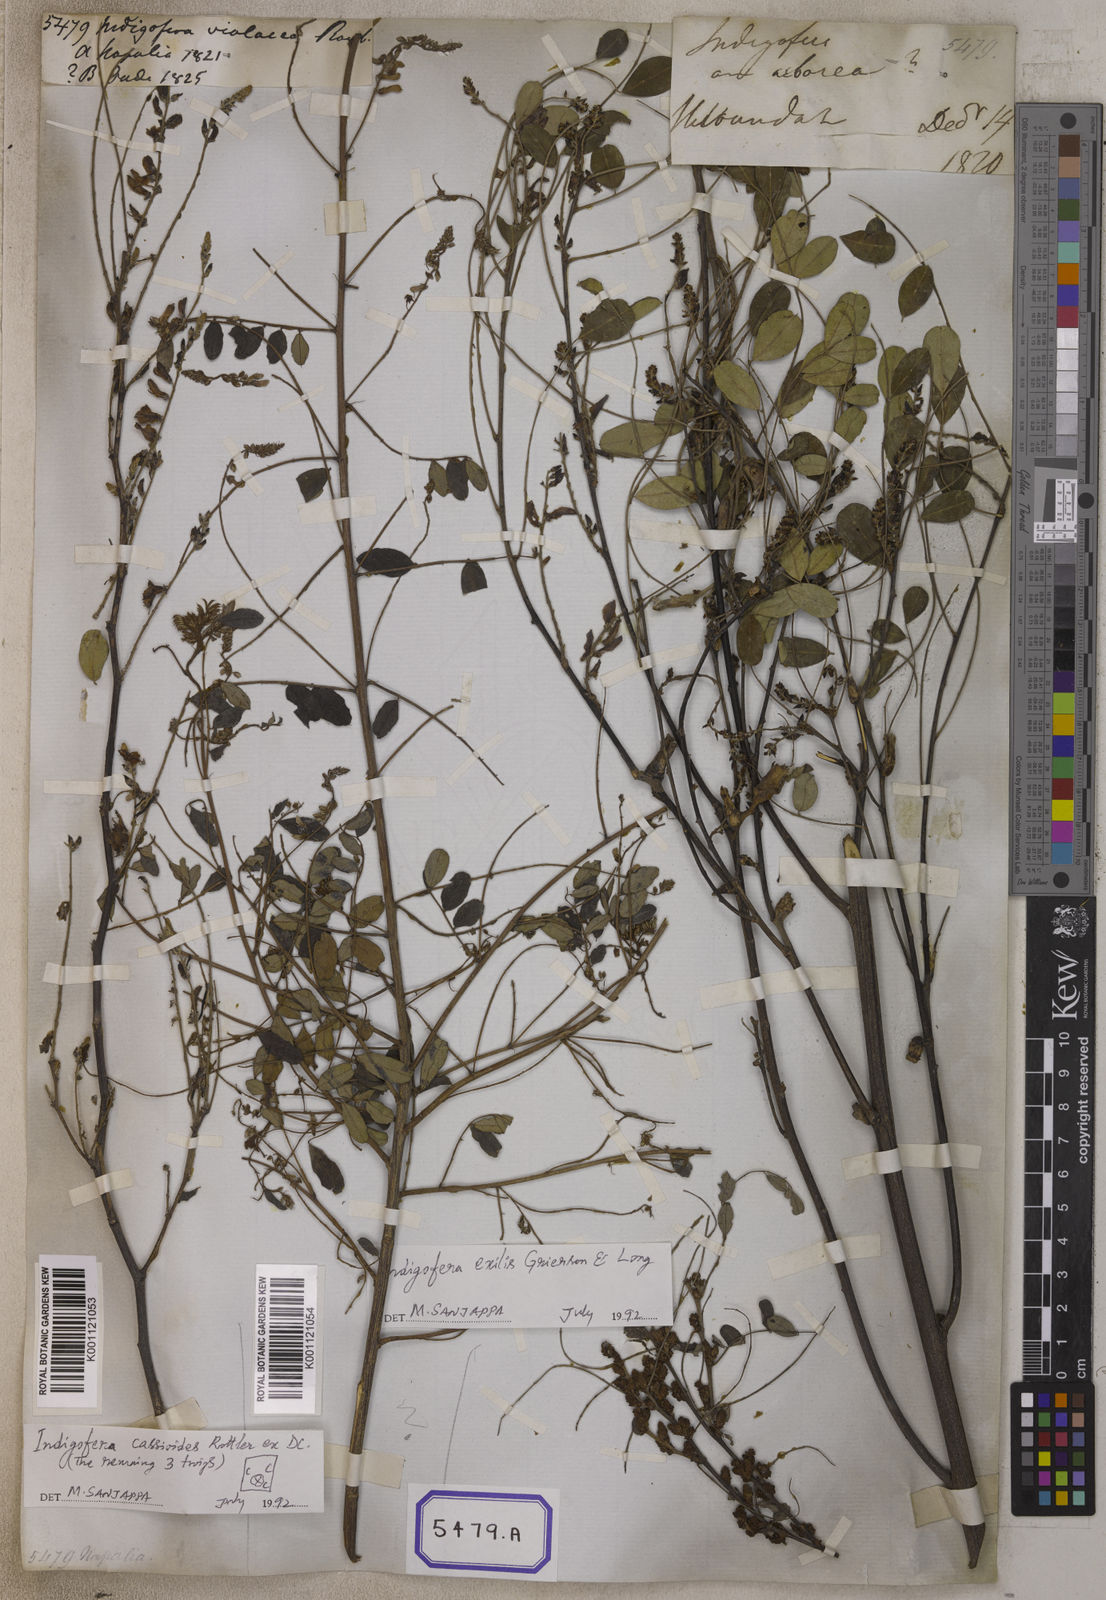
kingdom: Plantae
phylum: Tracheophyta
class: Magnoliopsida
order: Fabales
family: Fabaceae
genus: Indigofera
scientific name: Indigofera cassioides
